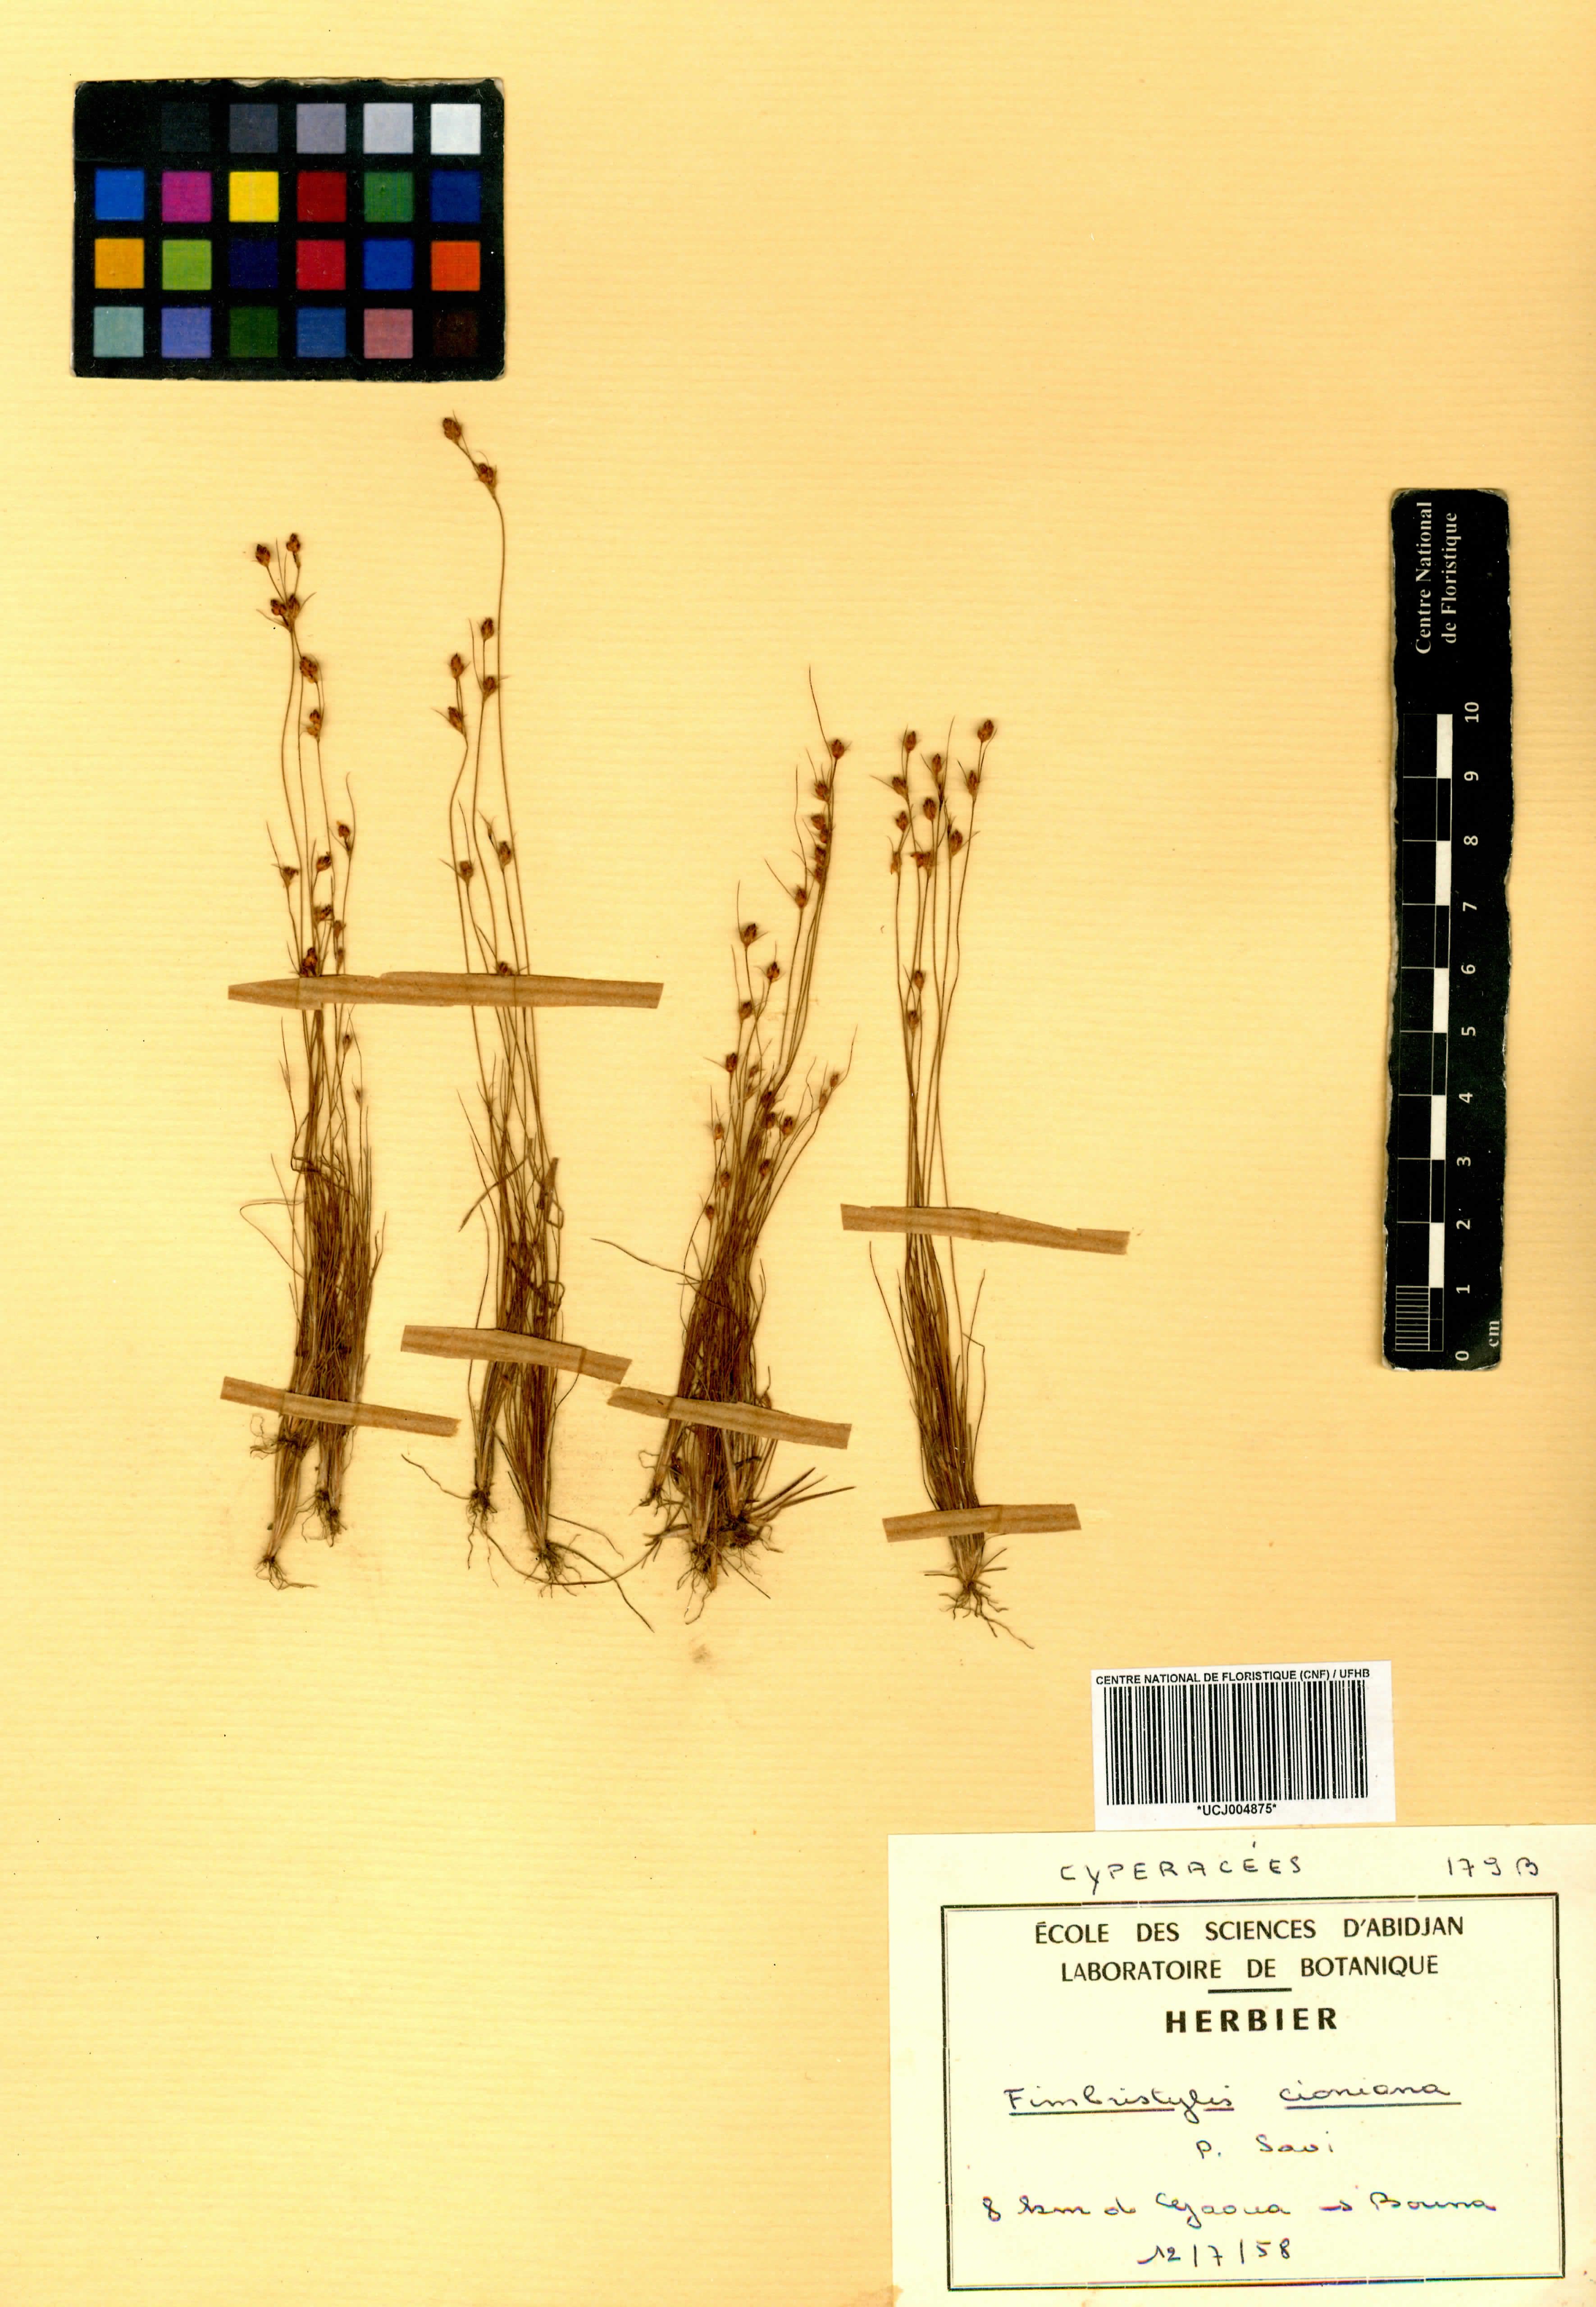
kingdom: Plantae
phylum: Tracheophyta
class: Liliopsida
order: Poales
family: Cyperaceae
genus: Bulbostylis
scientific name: Bulbostylis cioniana
